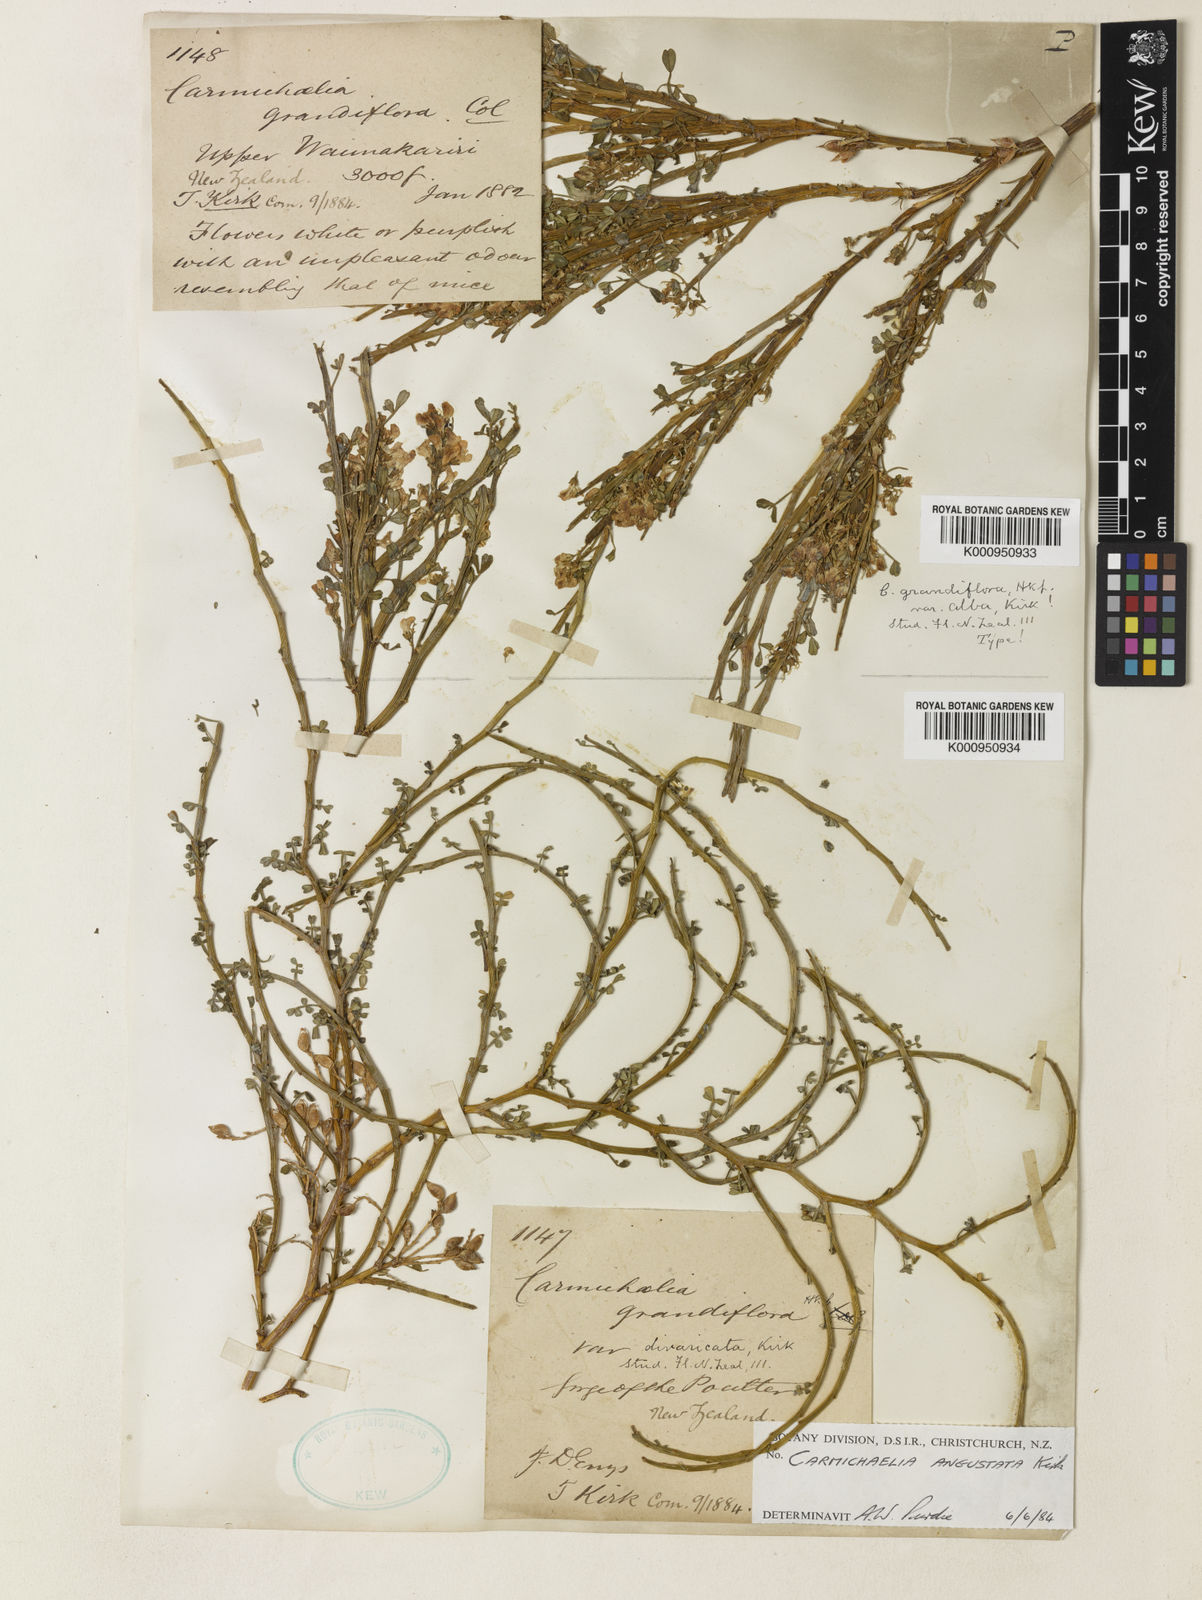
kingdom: Plantae
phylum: Tracheophyta
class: Magnoliopsida
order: Fabales
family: Fabaceae
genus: Carmichaelia
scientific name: Carmichaelia
